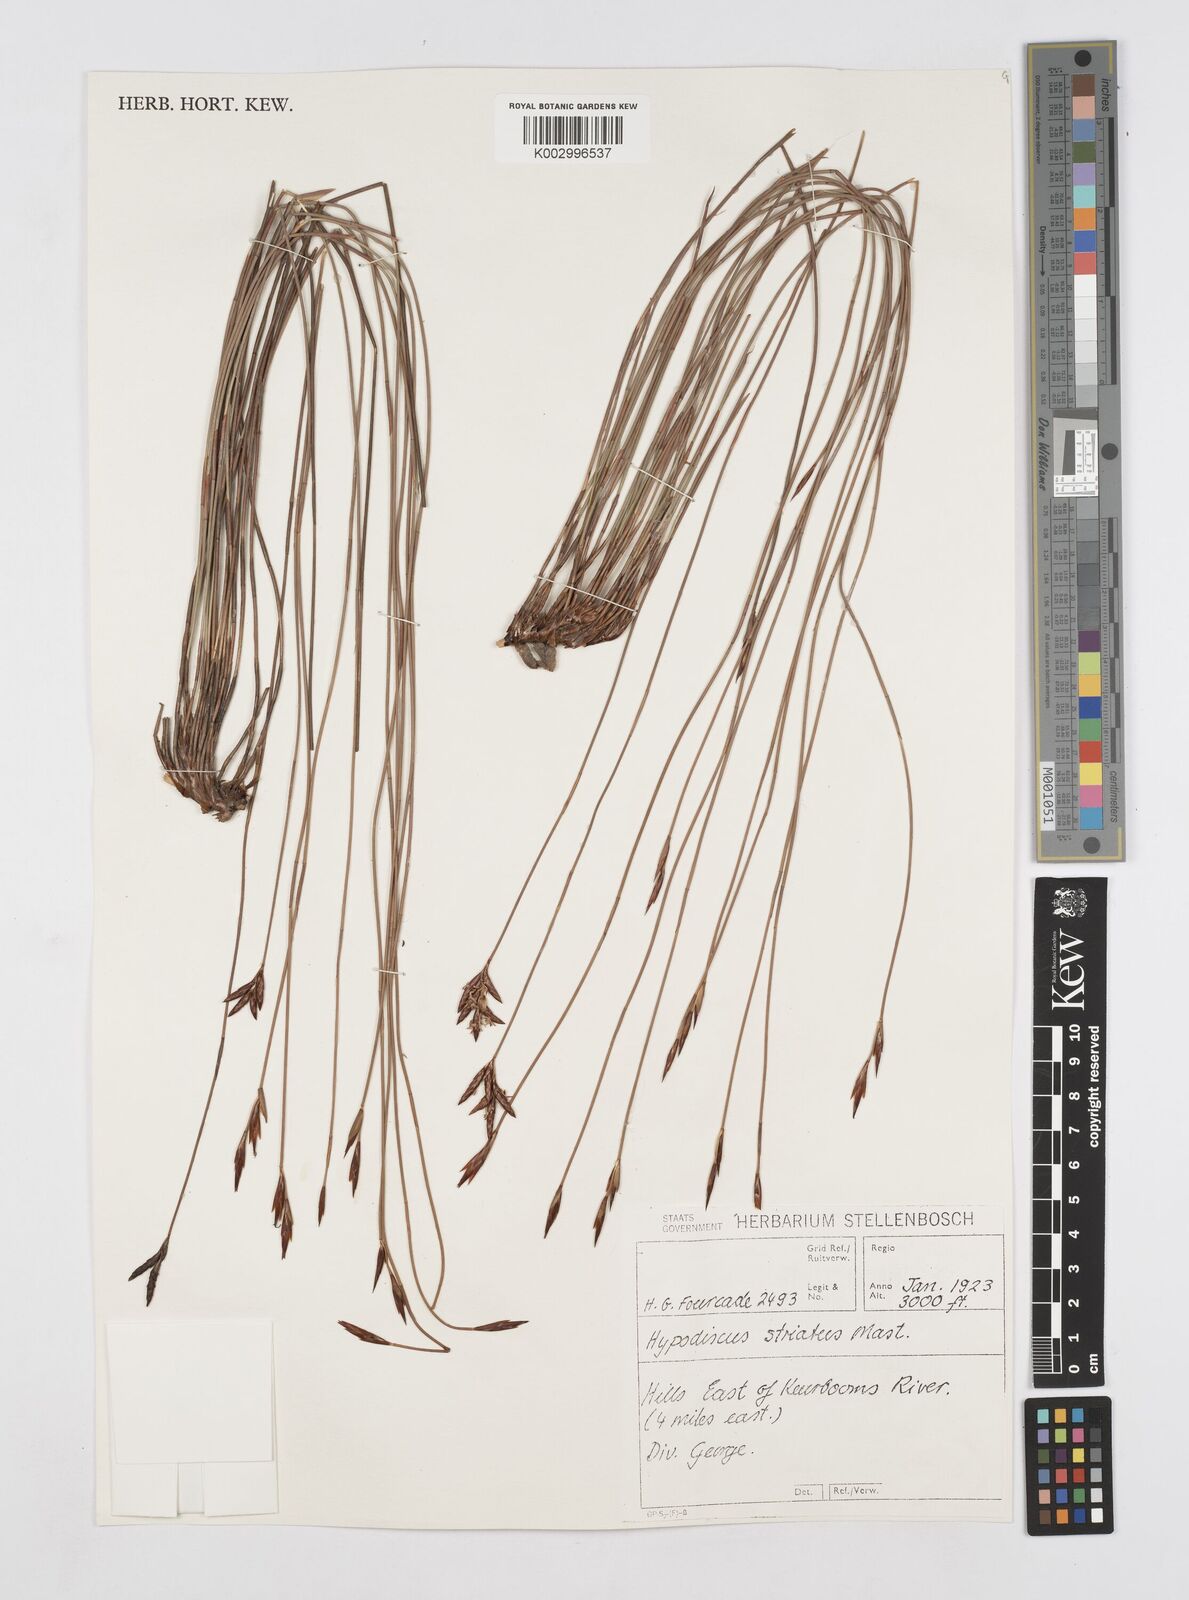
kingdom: Plantae
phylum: Tracheophyta
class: Liliopsida
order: Poales
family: Restionaceae
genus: Hypodiscus
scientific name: Hypodiscus striatus
